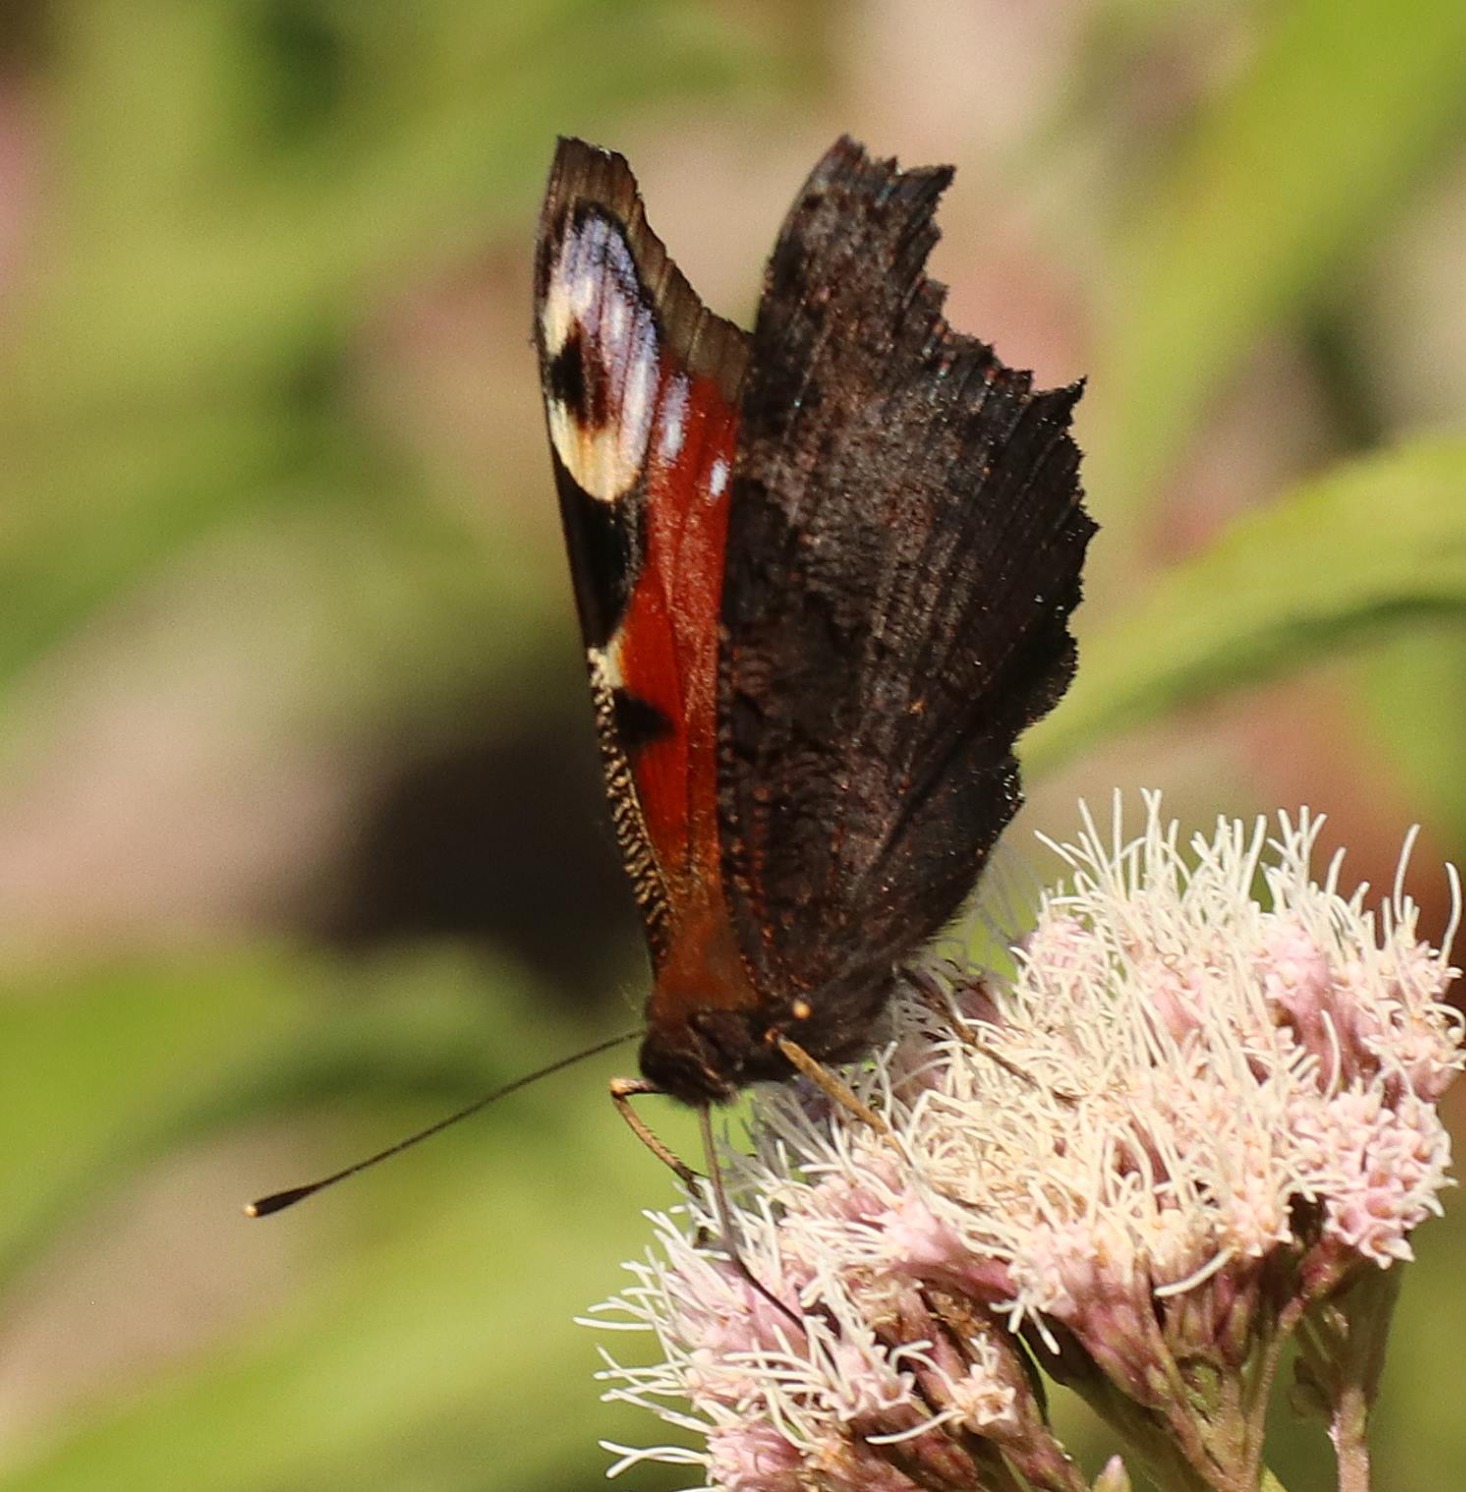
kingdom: Animalia
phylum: Arthropoda
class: Insecta
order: Lepidoptera
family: Nymphalidae
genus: Aglais
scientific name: Aglais io
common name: Dagpåfugleøje
